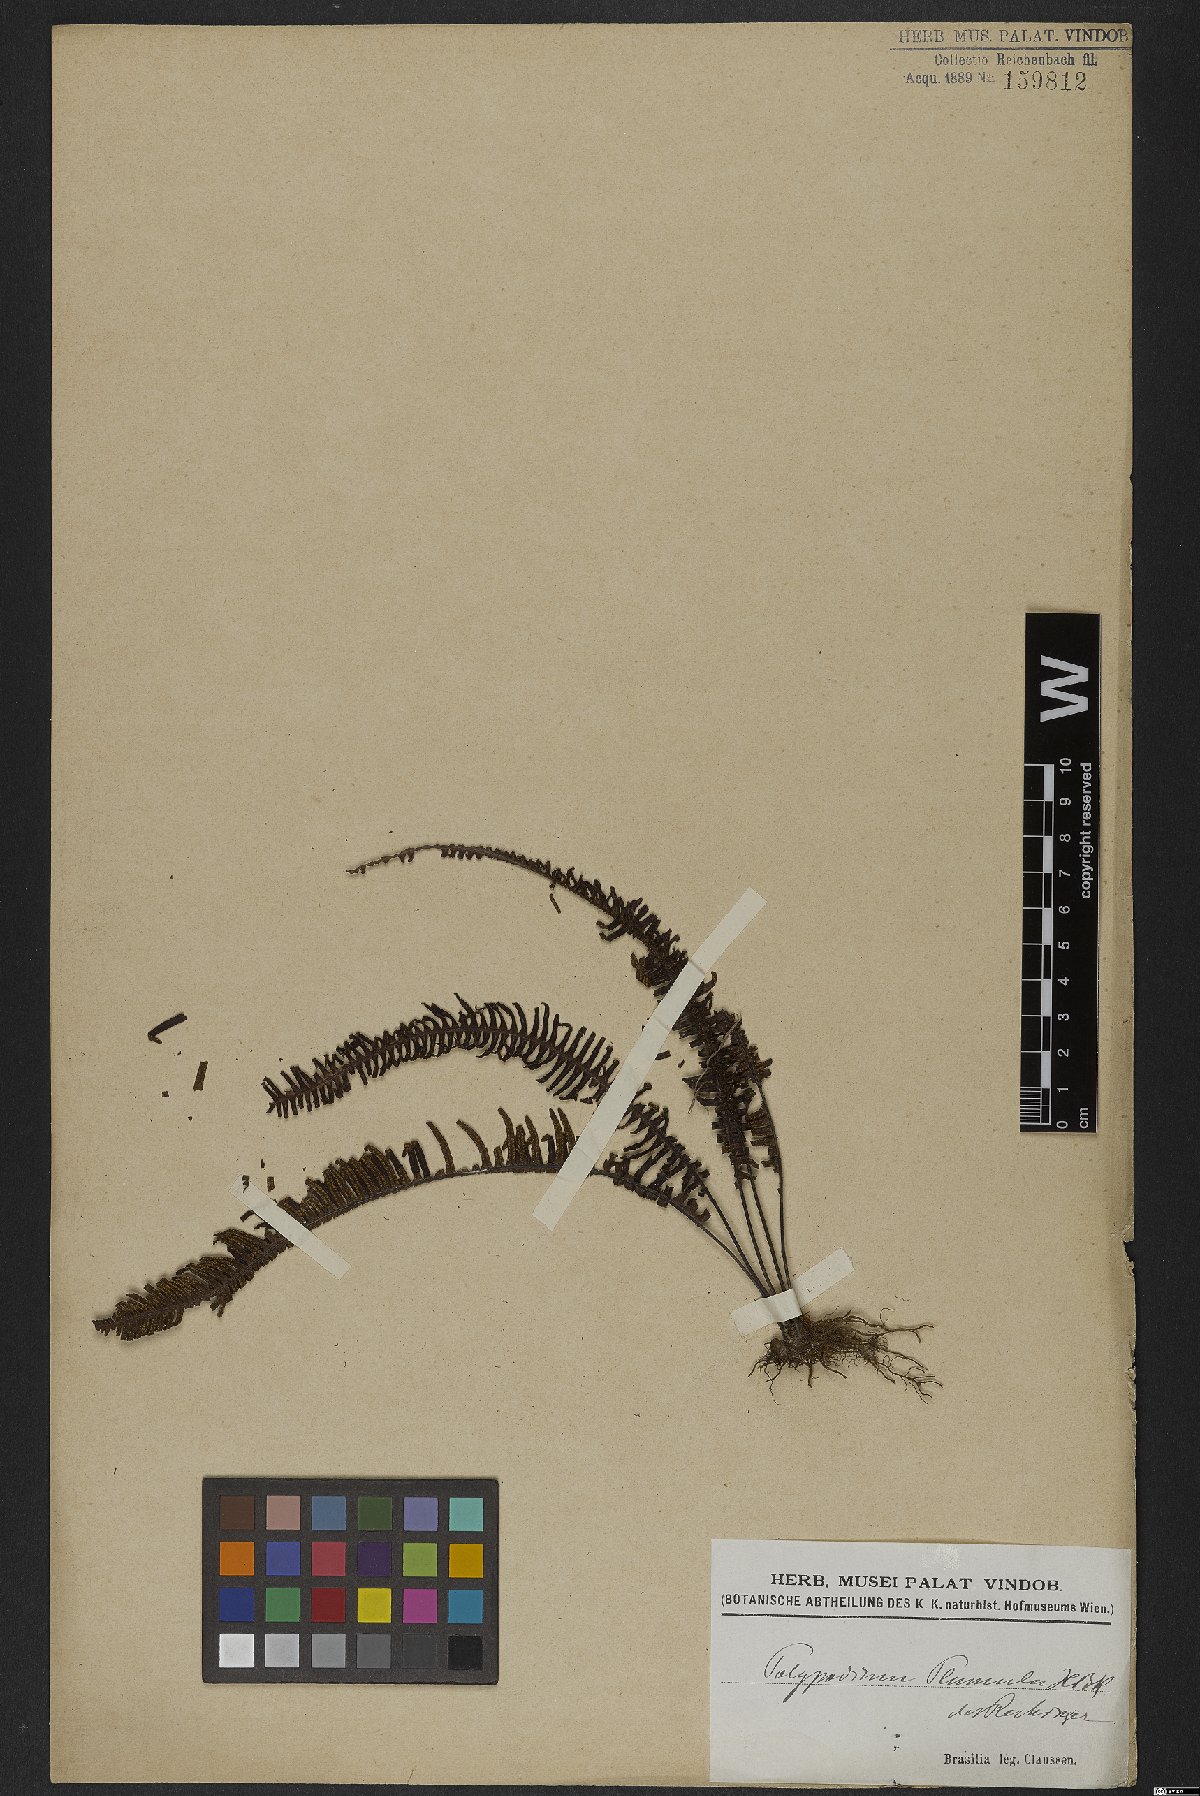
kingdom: Plantae
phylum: Tracheophyta
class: Polypodiopsida
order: Polypodiales
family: Polypodiaceae
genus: Pecluma
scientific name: Pecluma plumula
